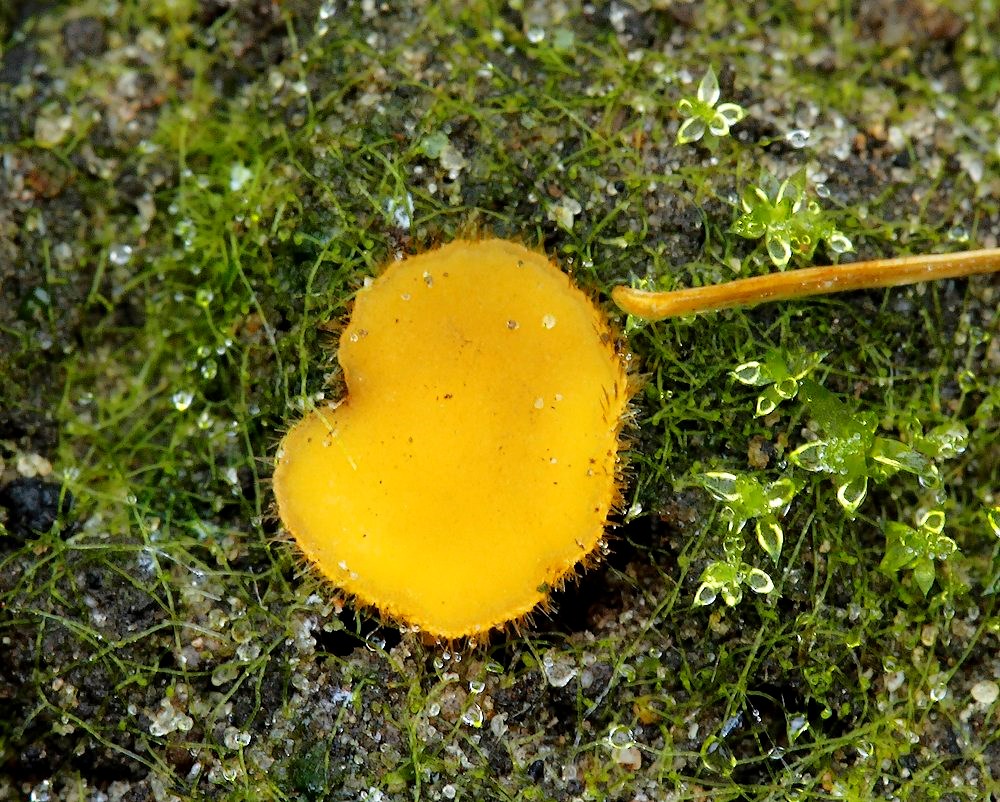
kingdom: Fungi
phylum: Ascomycota
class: Pezizomycetes
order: Pezizales
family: Pyronemataceae
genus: Cheilymenia
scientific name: Cheilymenia vitellina
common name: æggegul hårbæger
